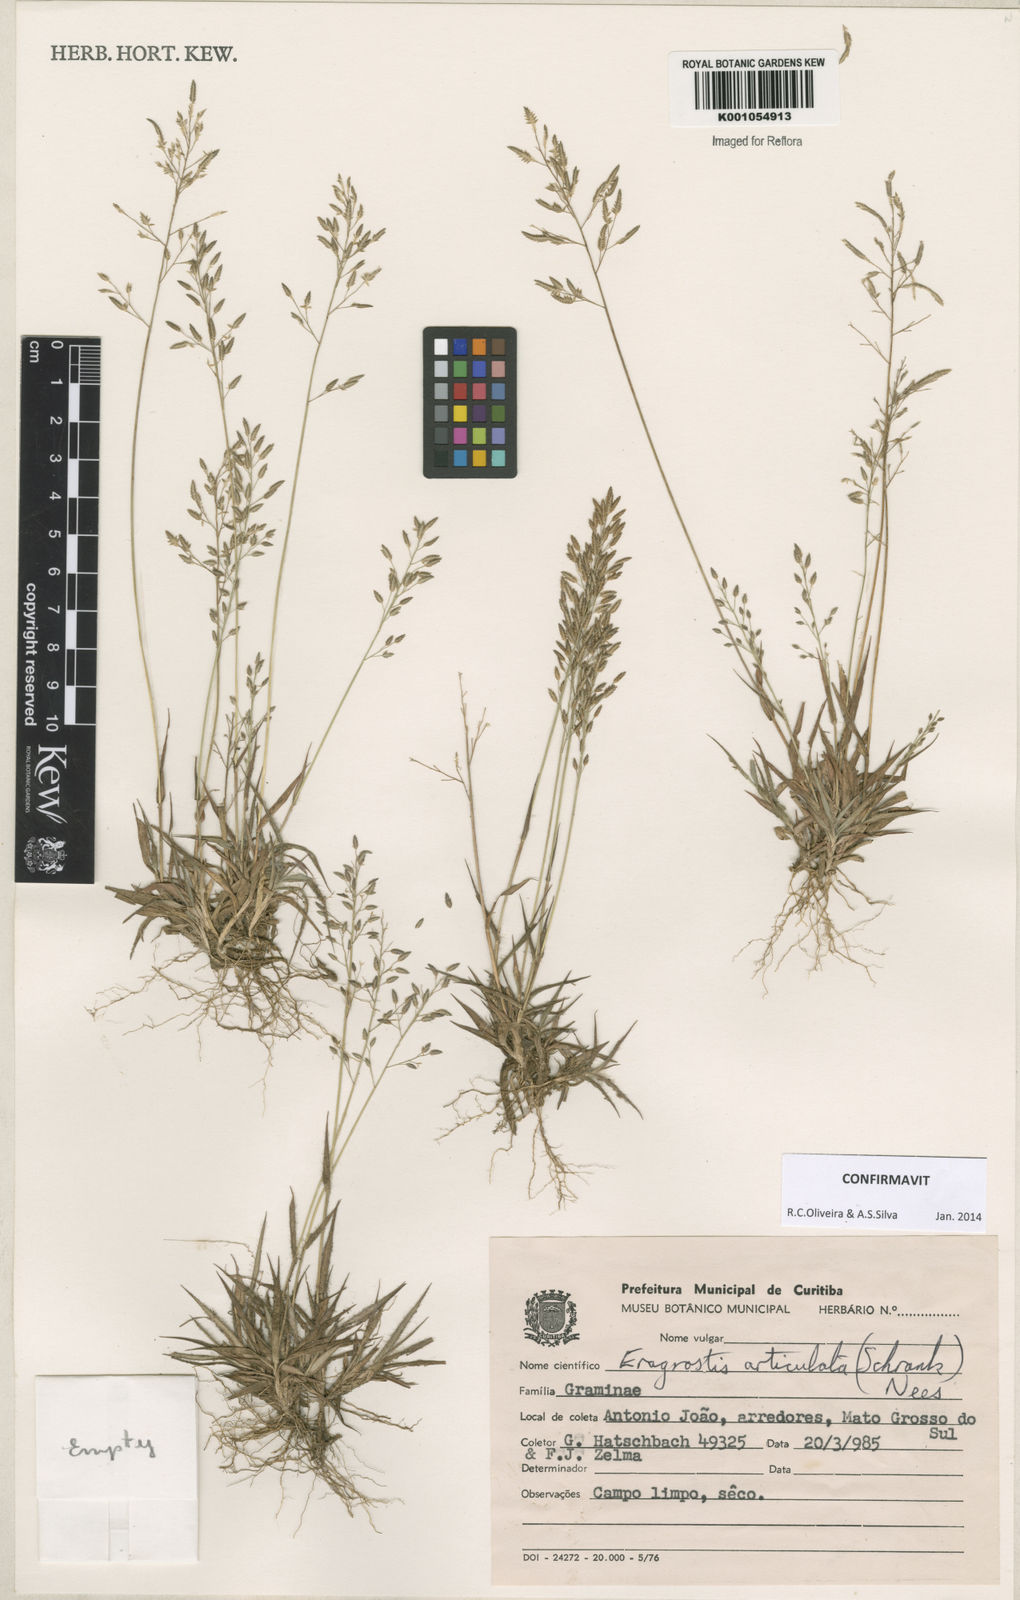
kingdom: Plantae
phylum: Tracheophyta
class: Liliopsida
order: Poales
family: Poaceae
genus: Eragrostis
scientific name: Eragrostis articulata
